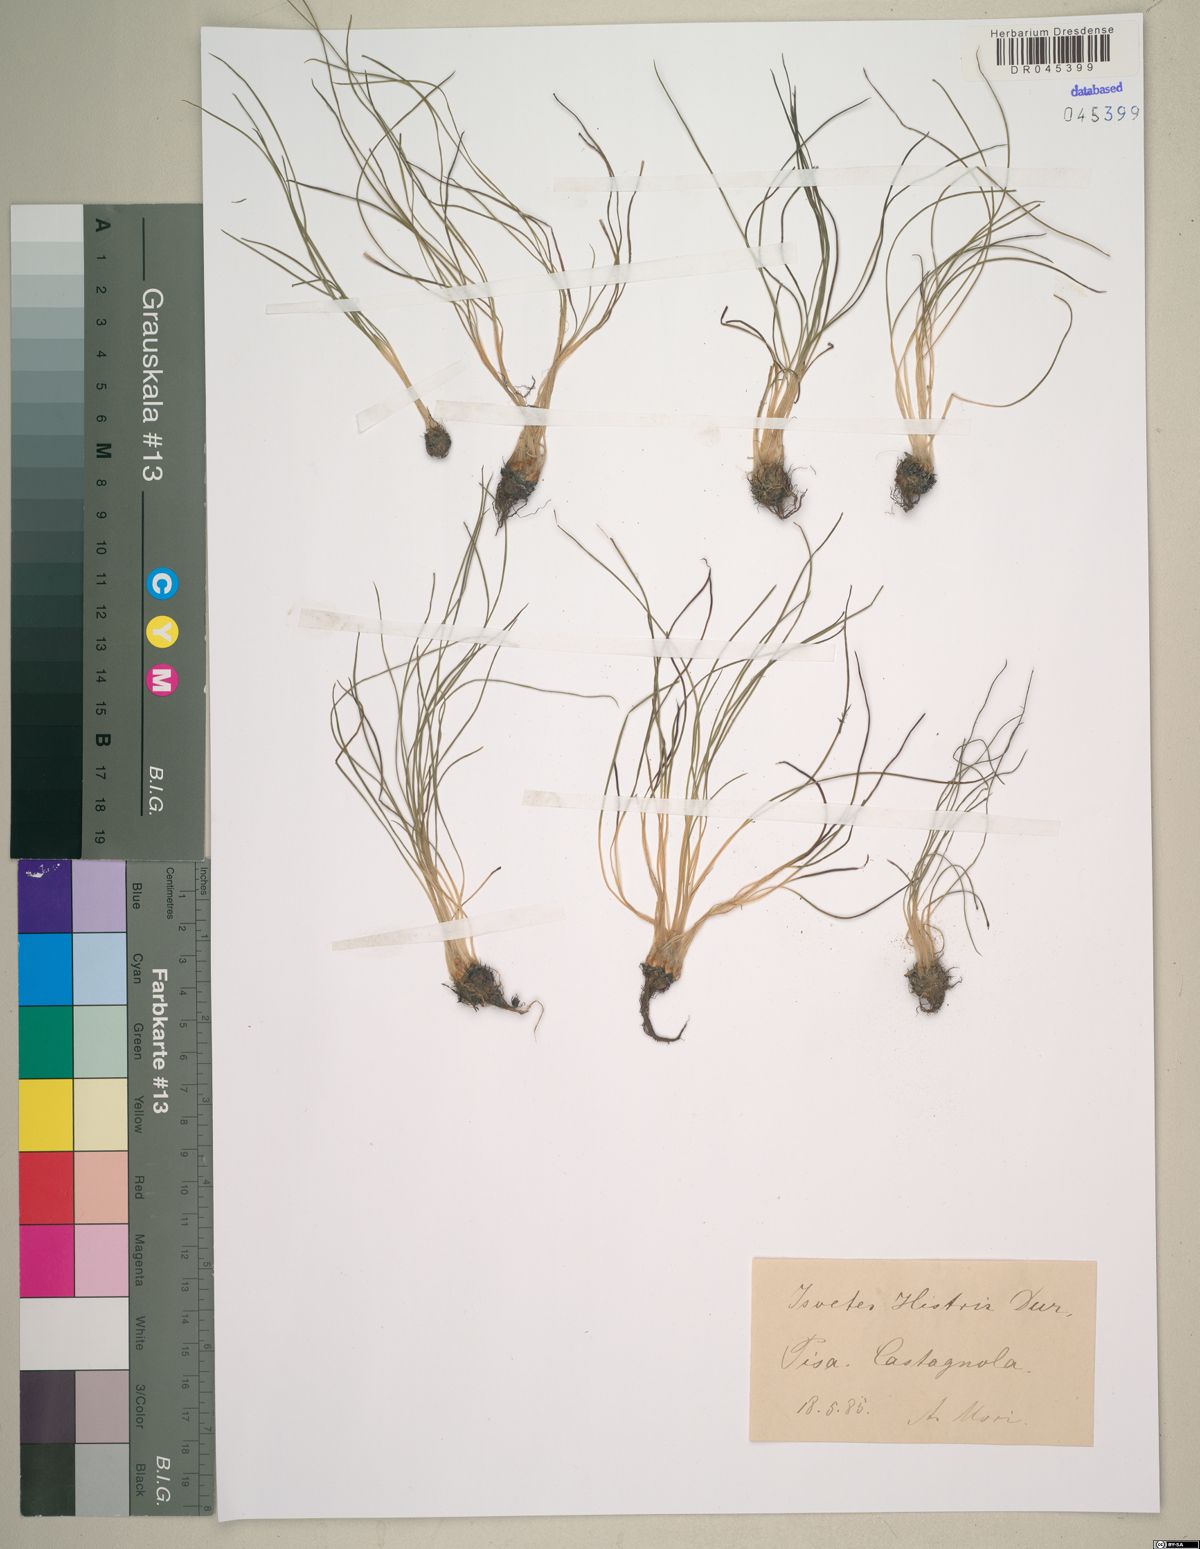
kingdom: Plantae
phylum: Tracheophyta
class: Lycopodiopsida
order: Isoetales
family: Isoetaceae
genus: Isoetes
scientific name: Isoetes histrix
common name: Land quillwort
